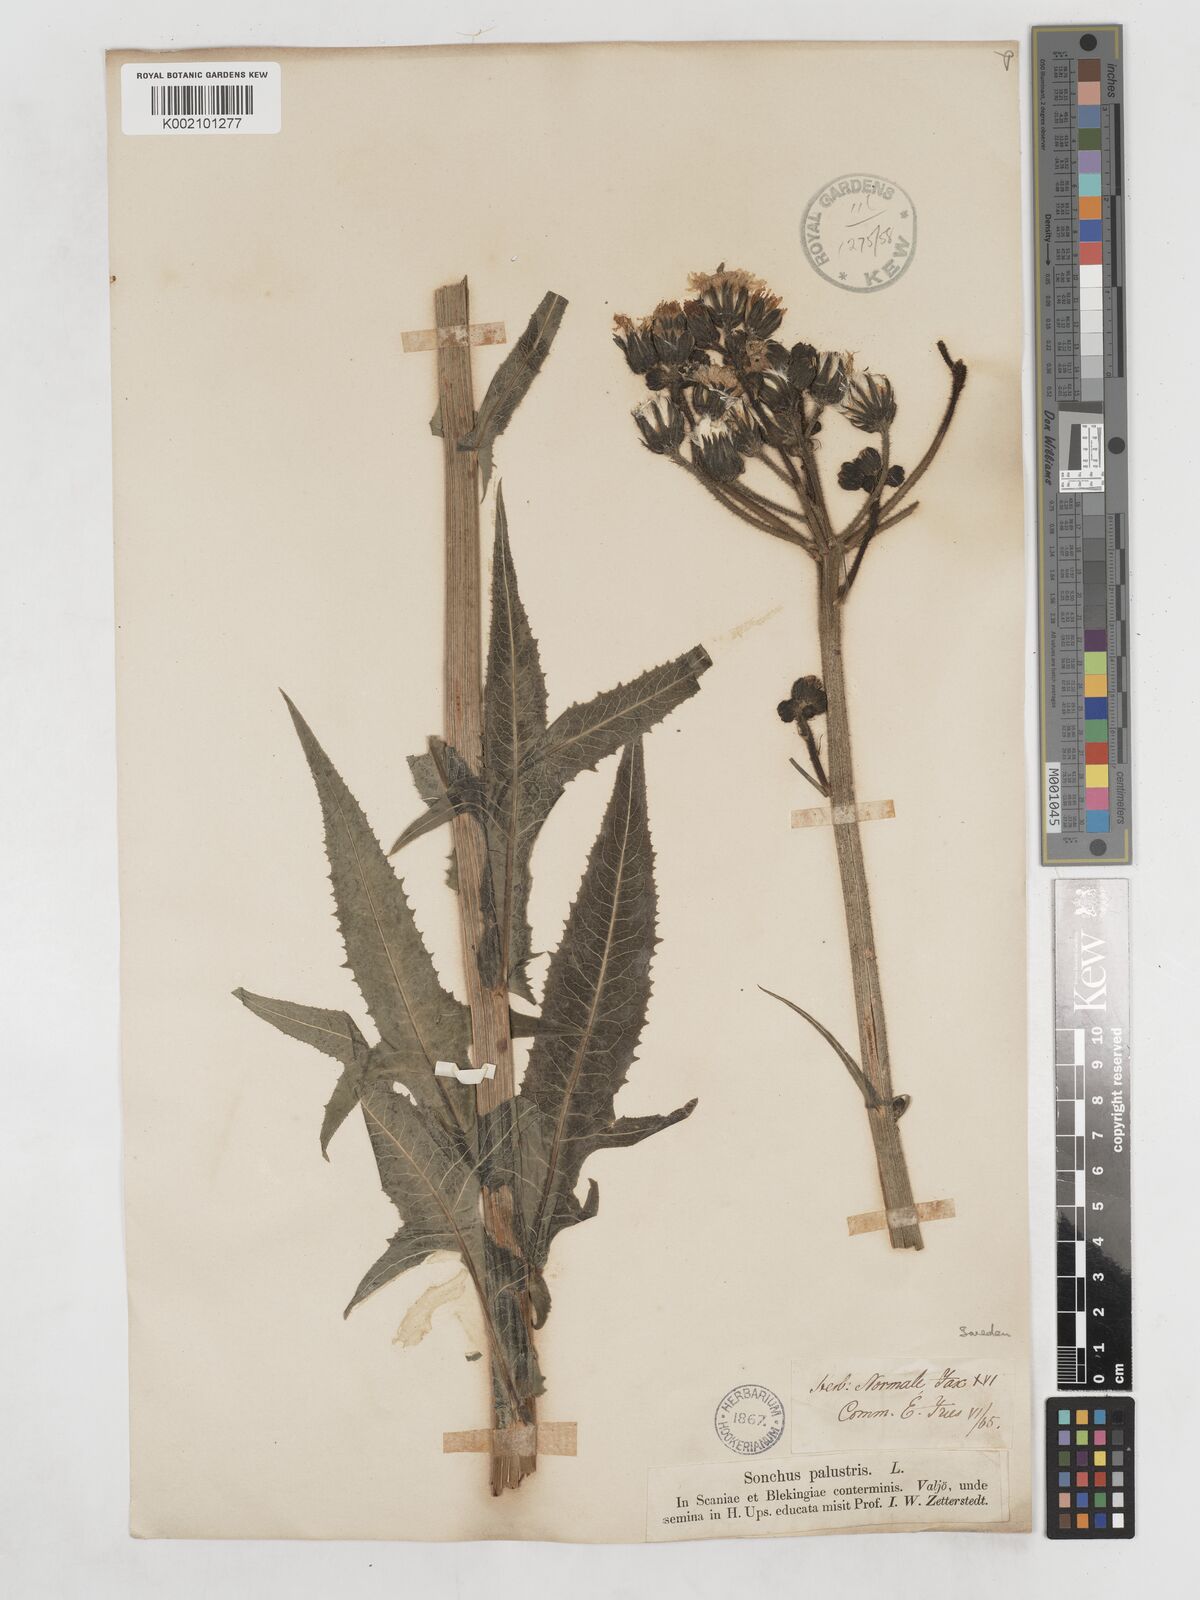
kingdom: Plantae
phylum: Tracheophyta
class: Magnoliopsida
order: Asterales
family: Asteraceae
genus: Sonchus
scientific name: Sonchus palustris
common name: Marsh sow-thistle
